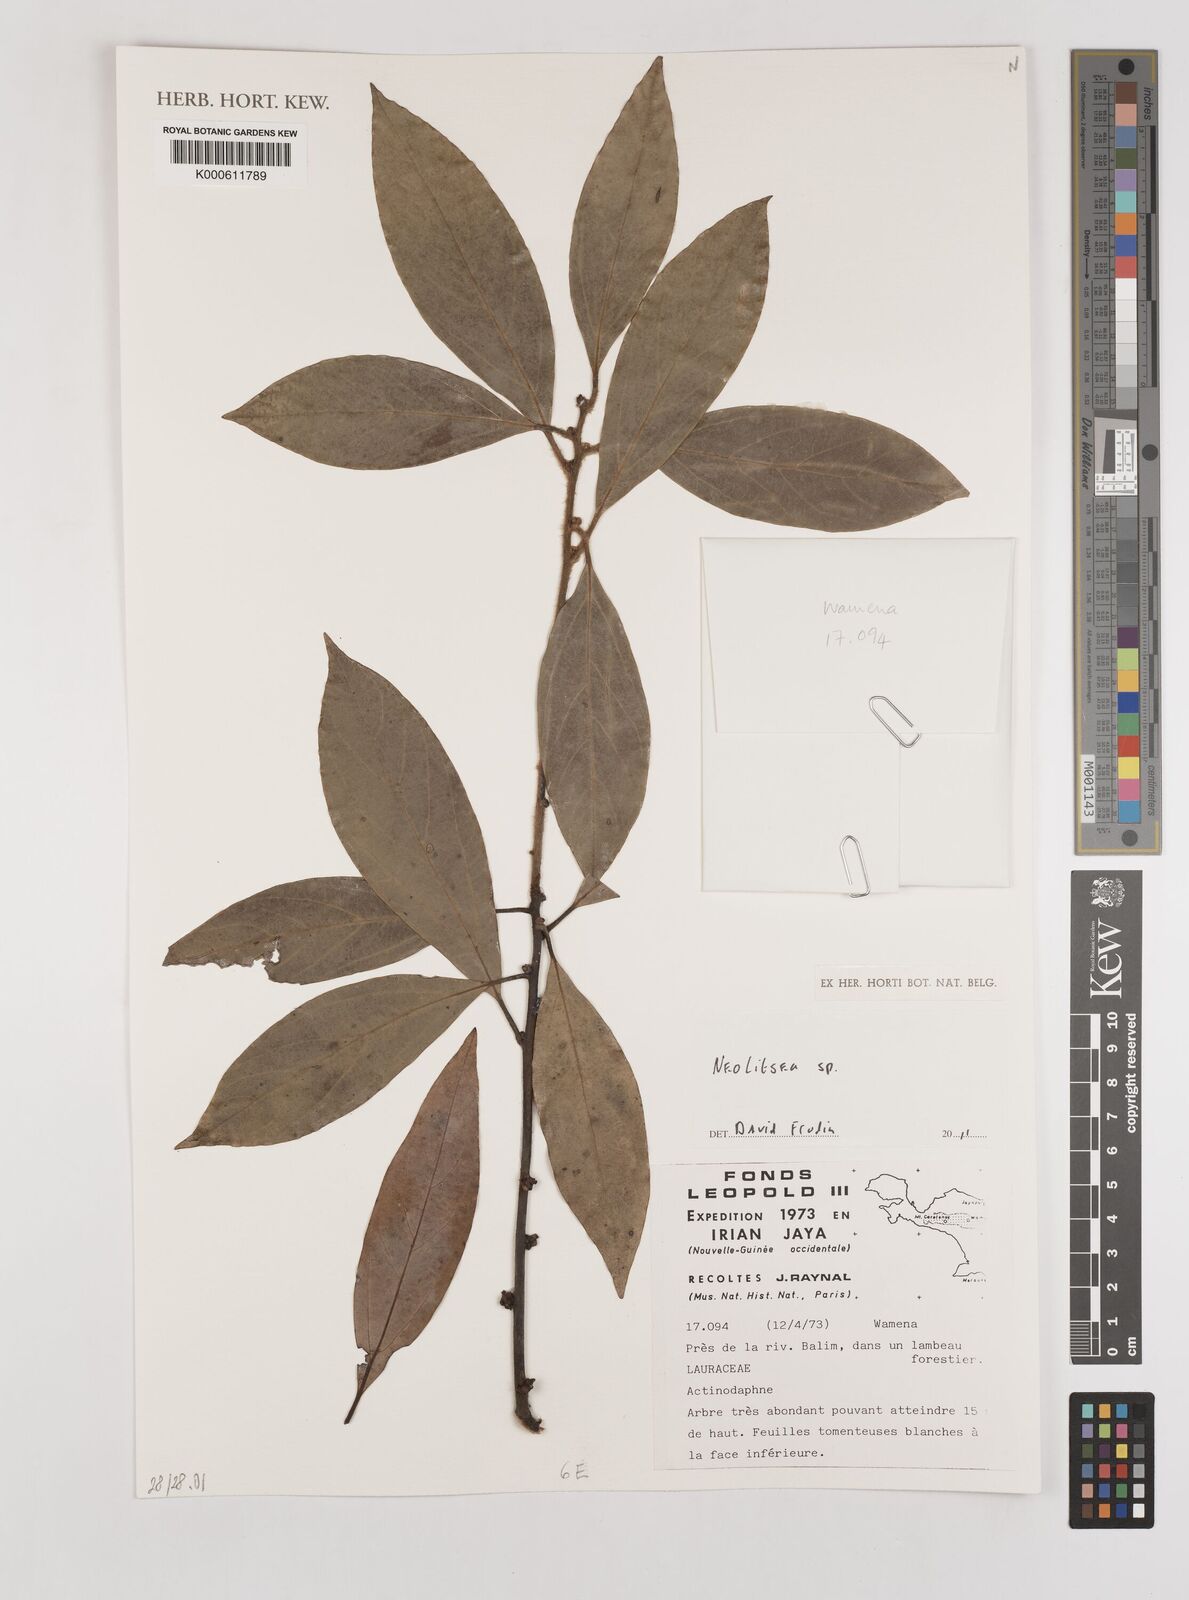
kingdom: Plantae
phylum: Tracheophyta
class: Magnoliopsida
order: Laurales
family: Lauraceae
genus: Neolitsea
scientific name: Neolitsea
